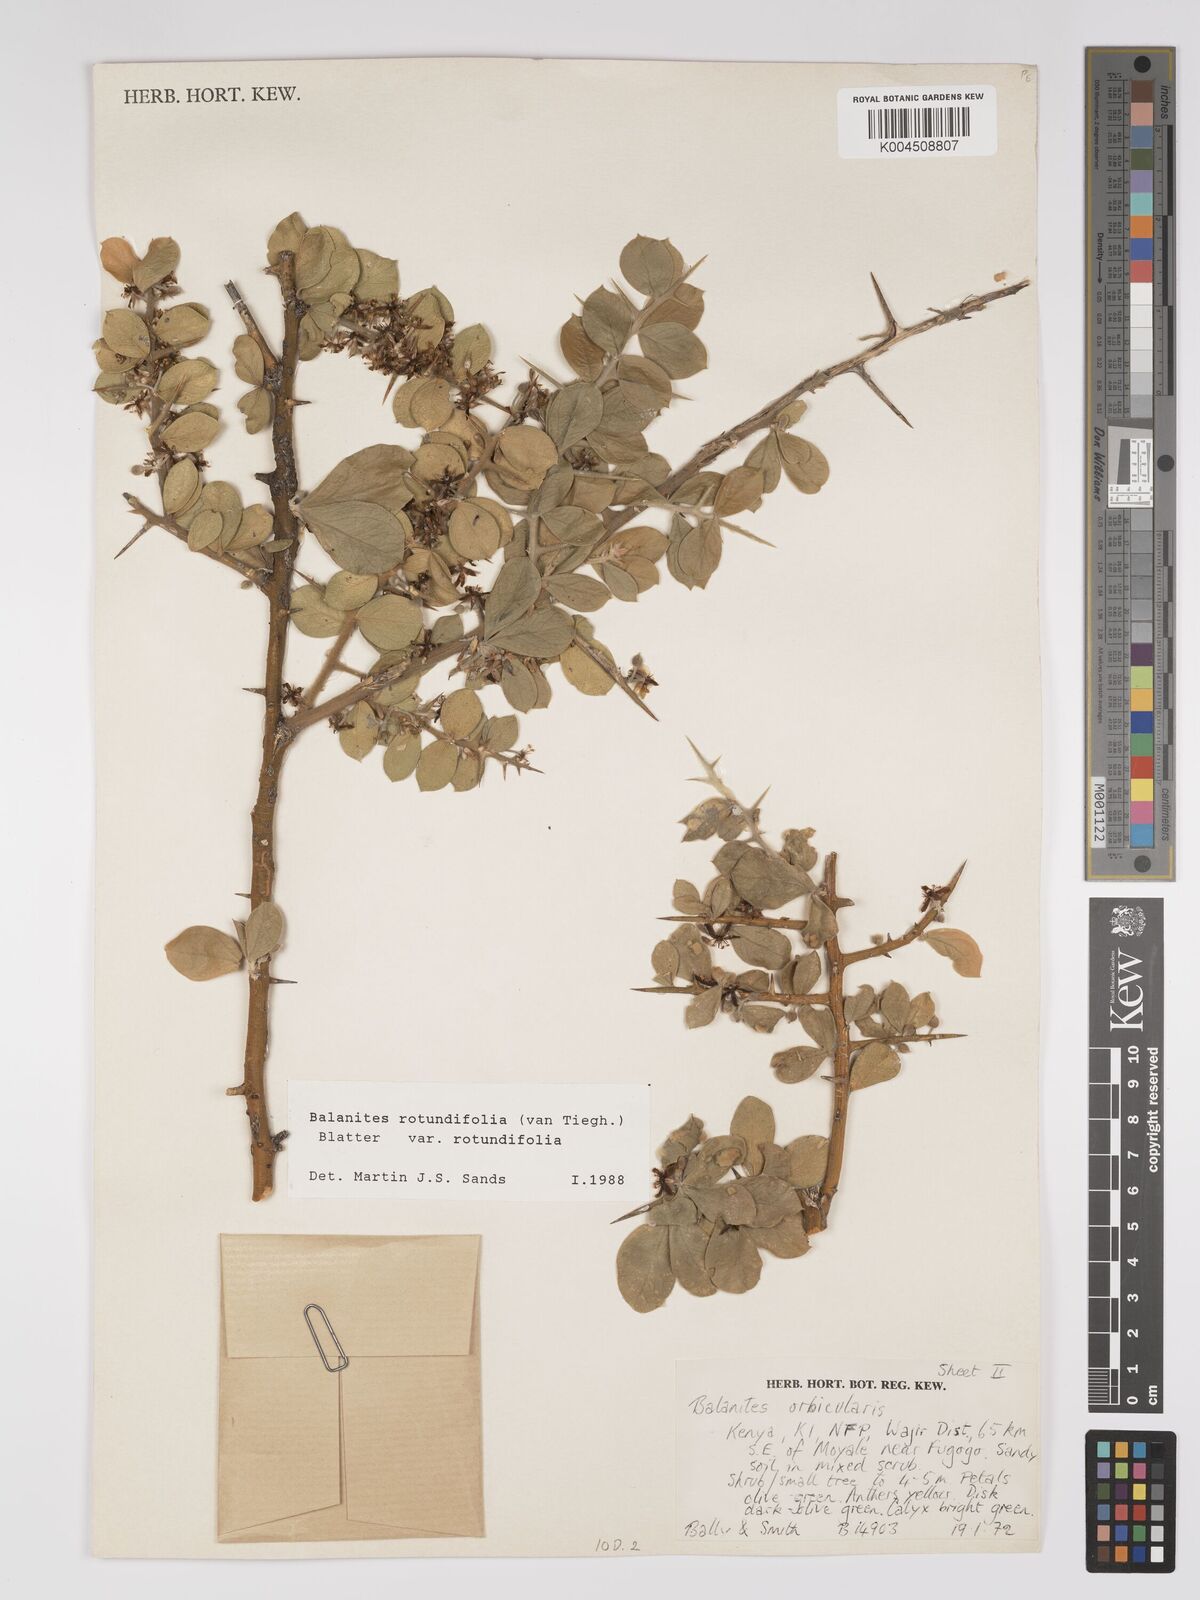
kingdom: Plantae
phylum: Tracheophyta
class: Magnoliopsida
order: Zygophyllales
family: Zygophyllaceae
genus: Balanites
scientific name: Balanites rotundifolia
